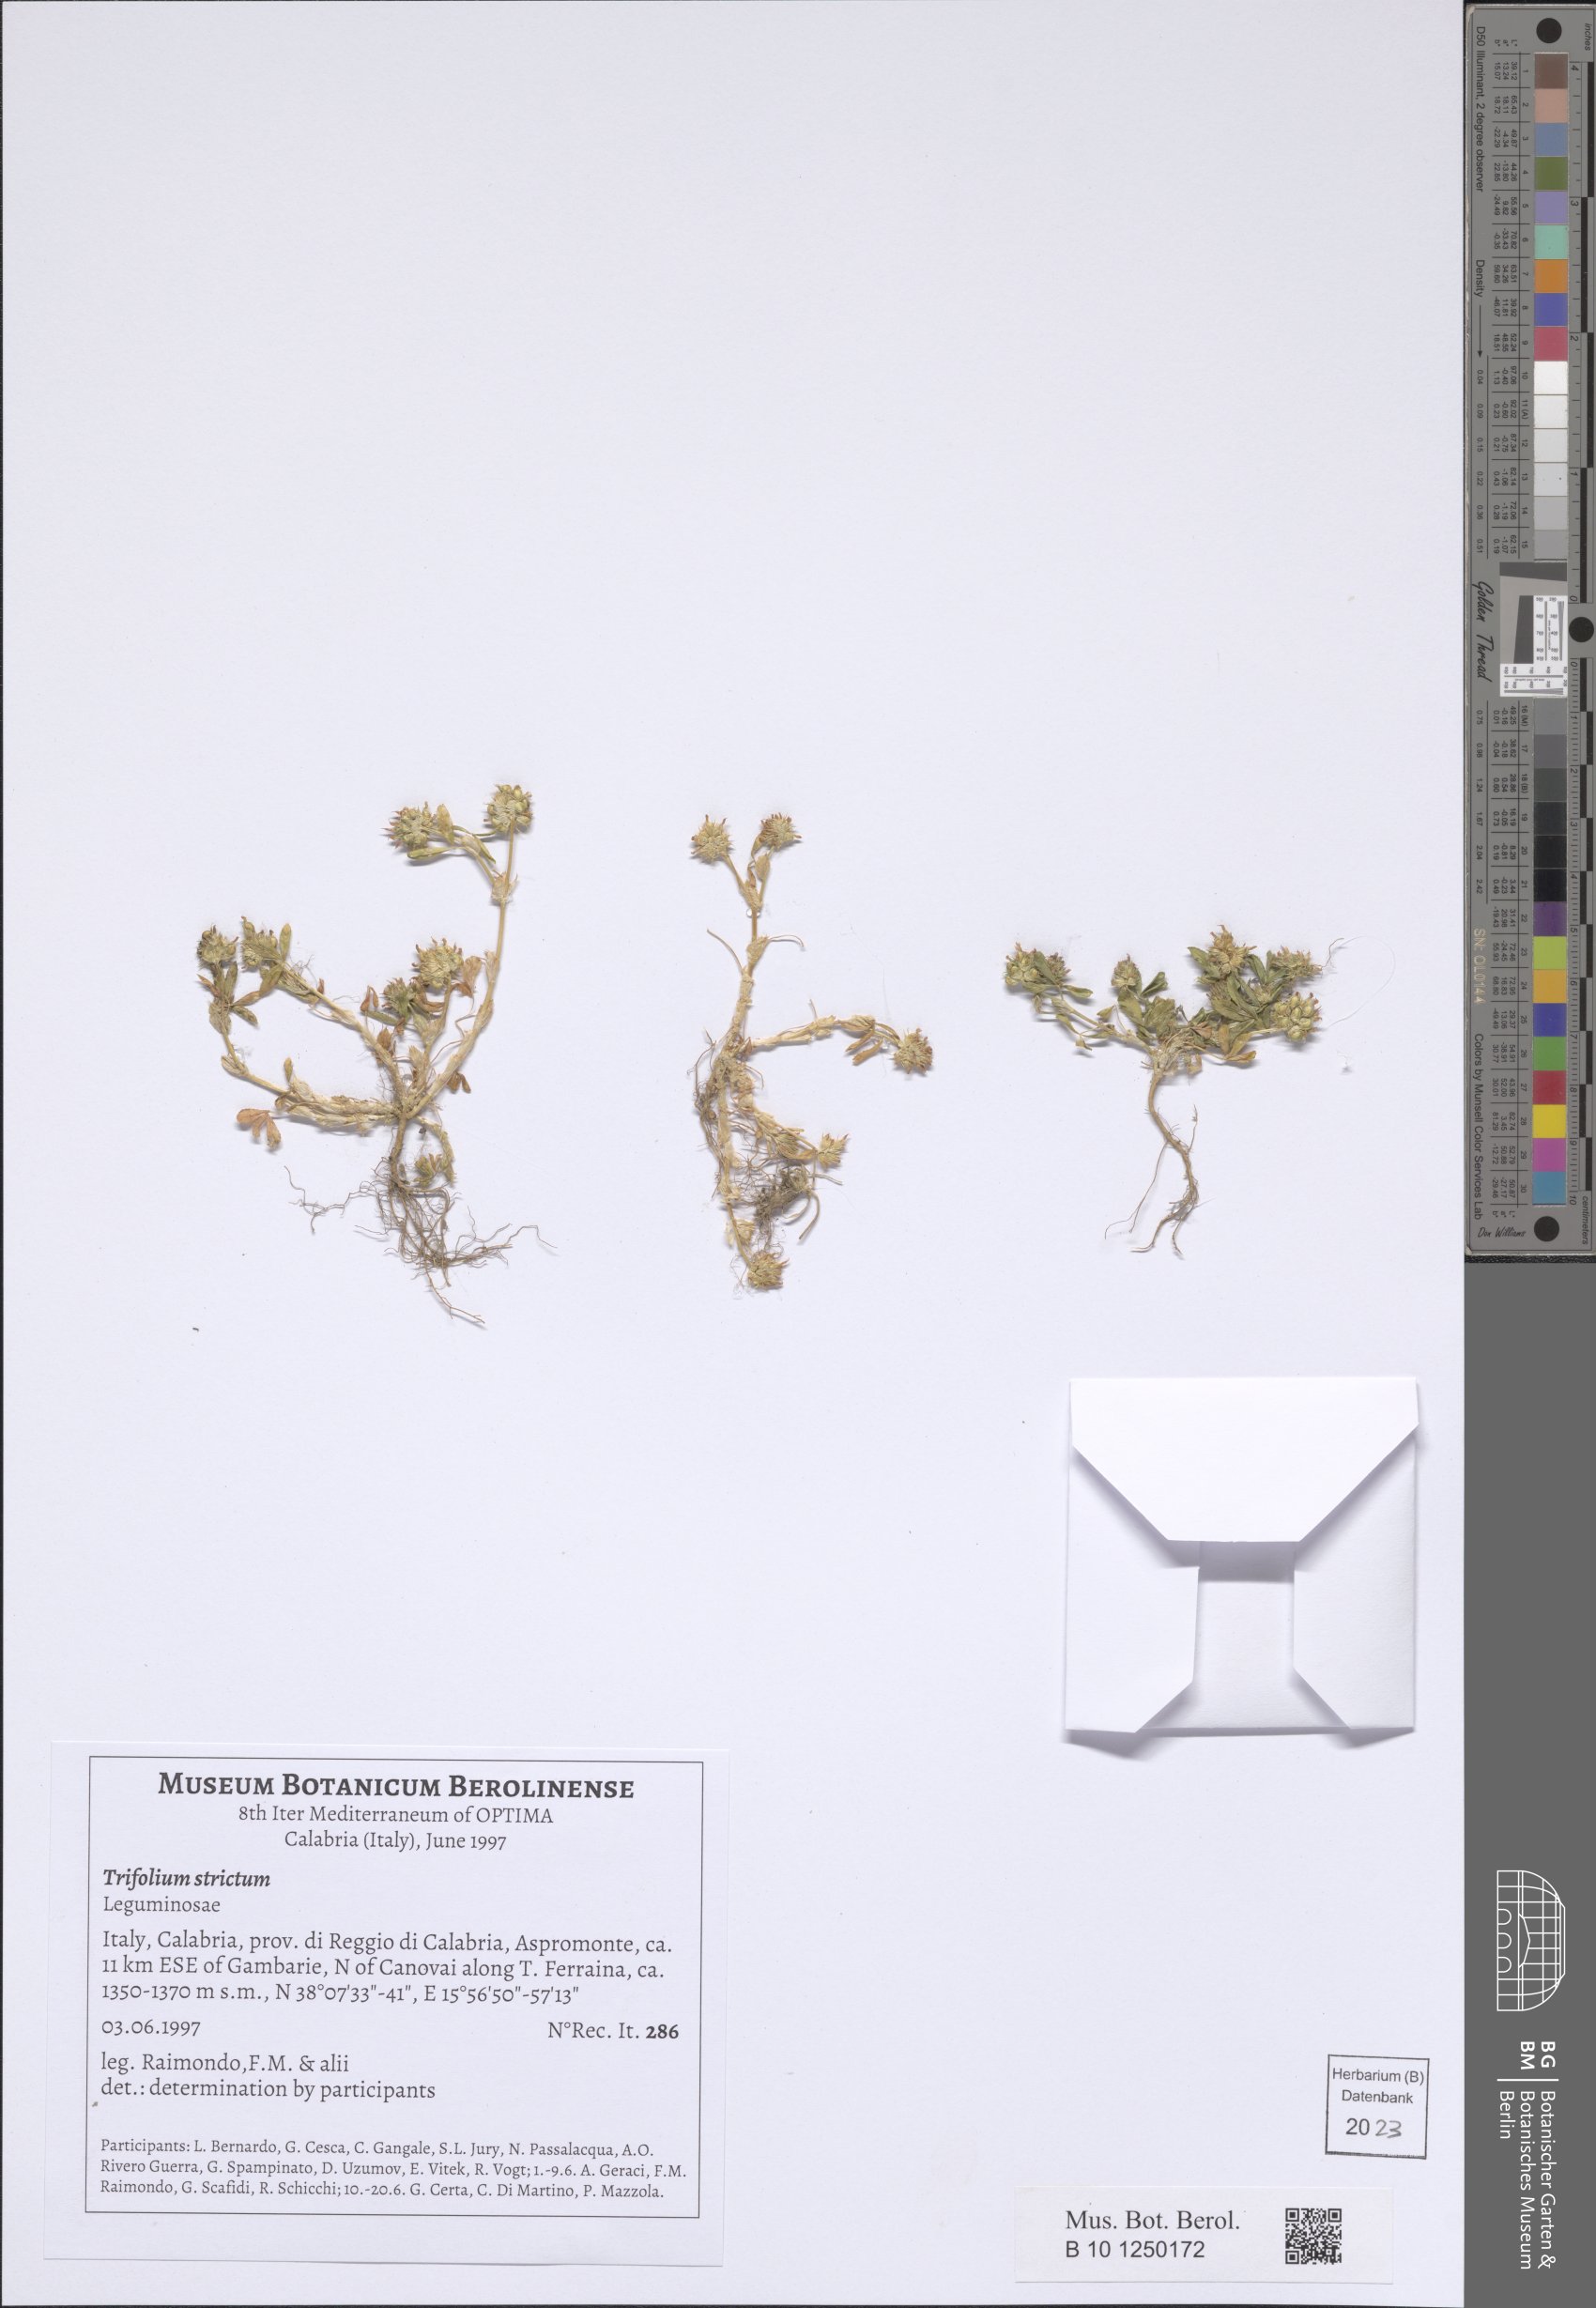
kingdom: Plantae
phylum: Tracheophyta
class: Magnoliopsida
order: Fabales
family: Fabaceae
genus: Trifolium
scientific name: Trifolium strictum
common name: Upright clover
